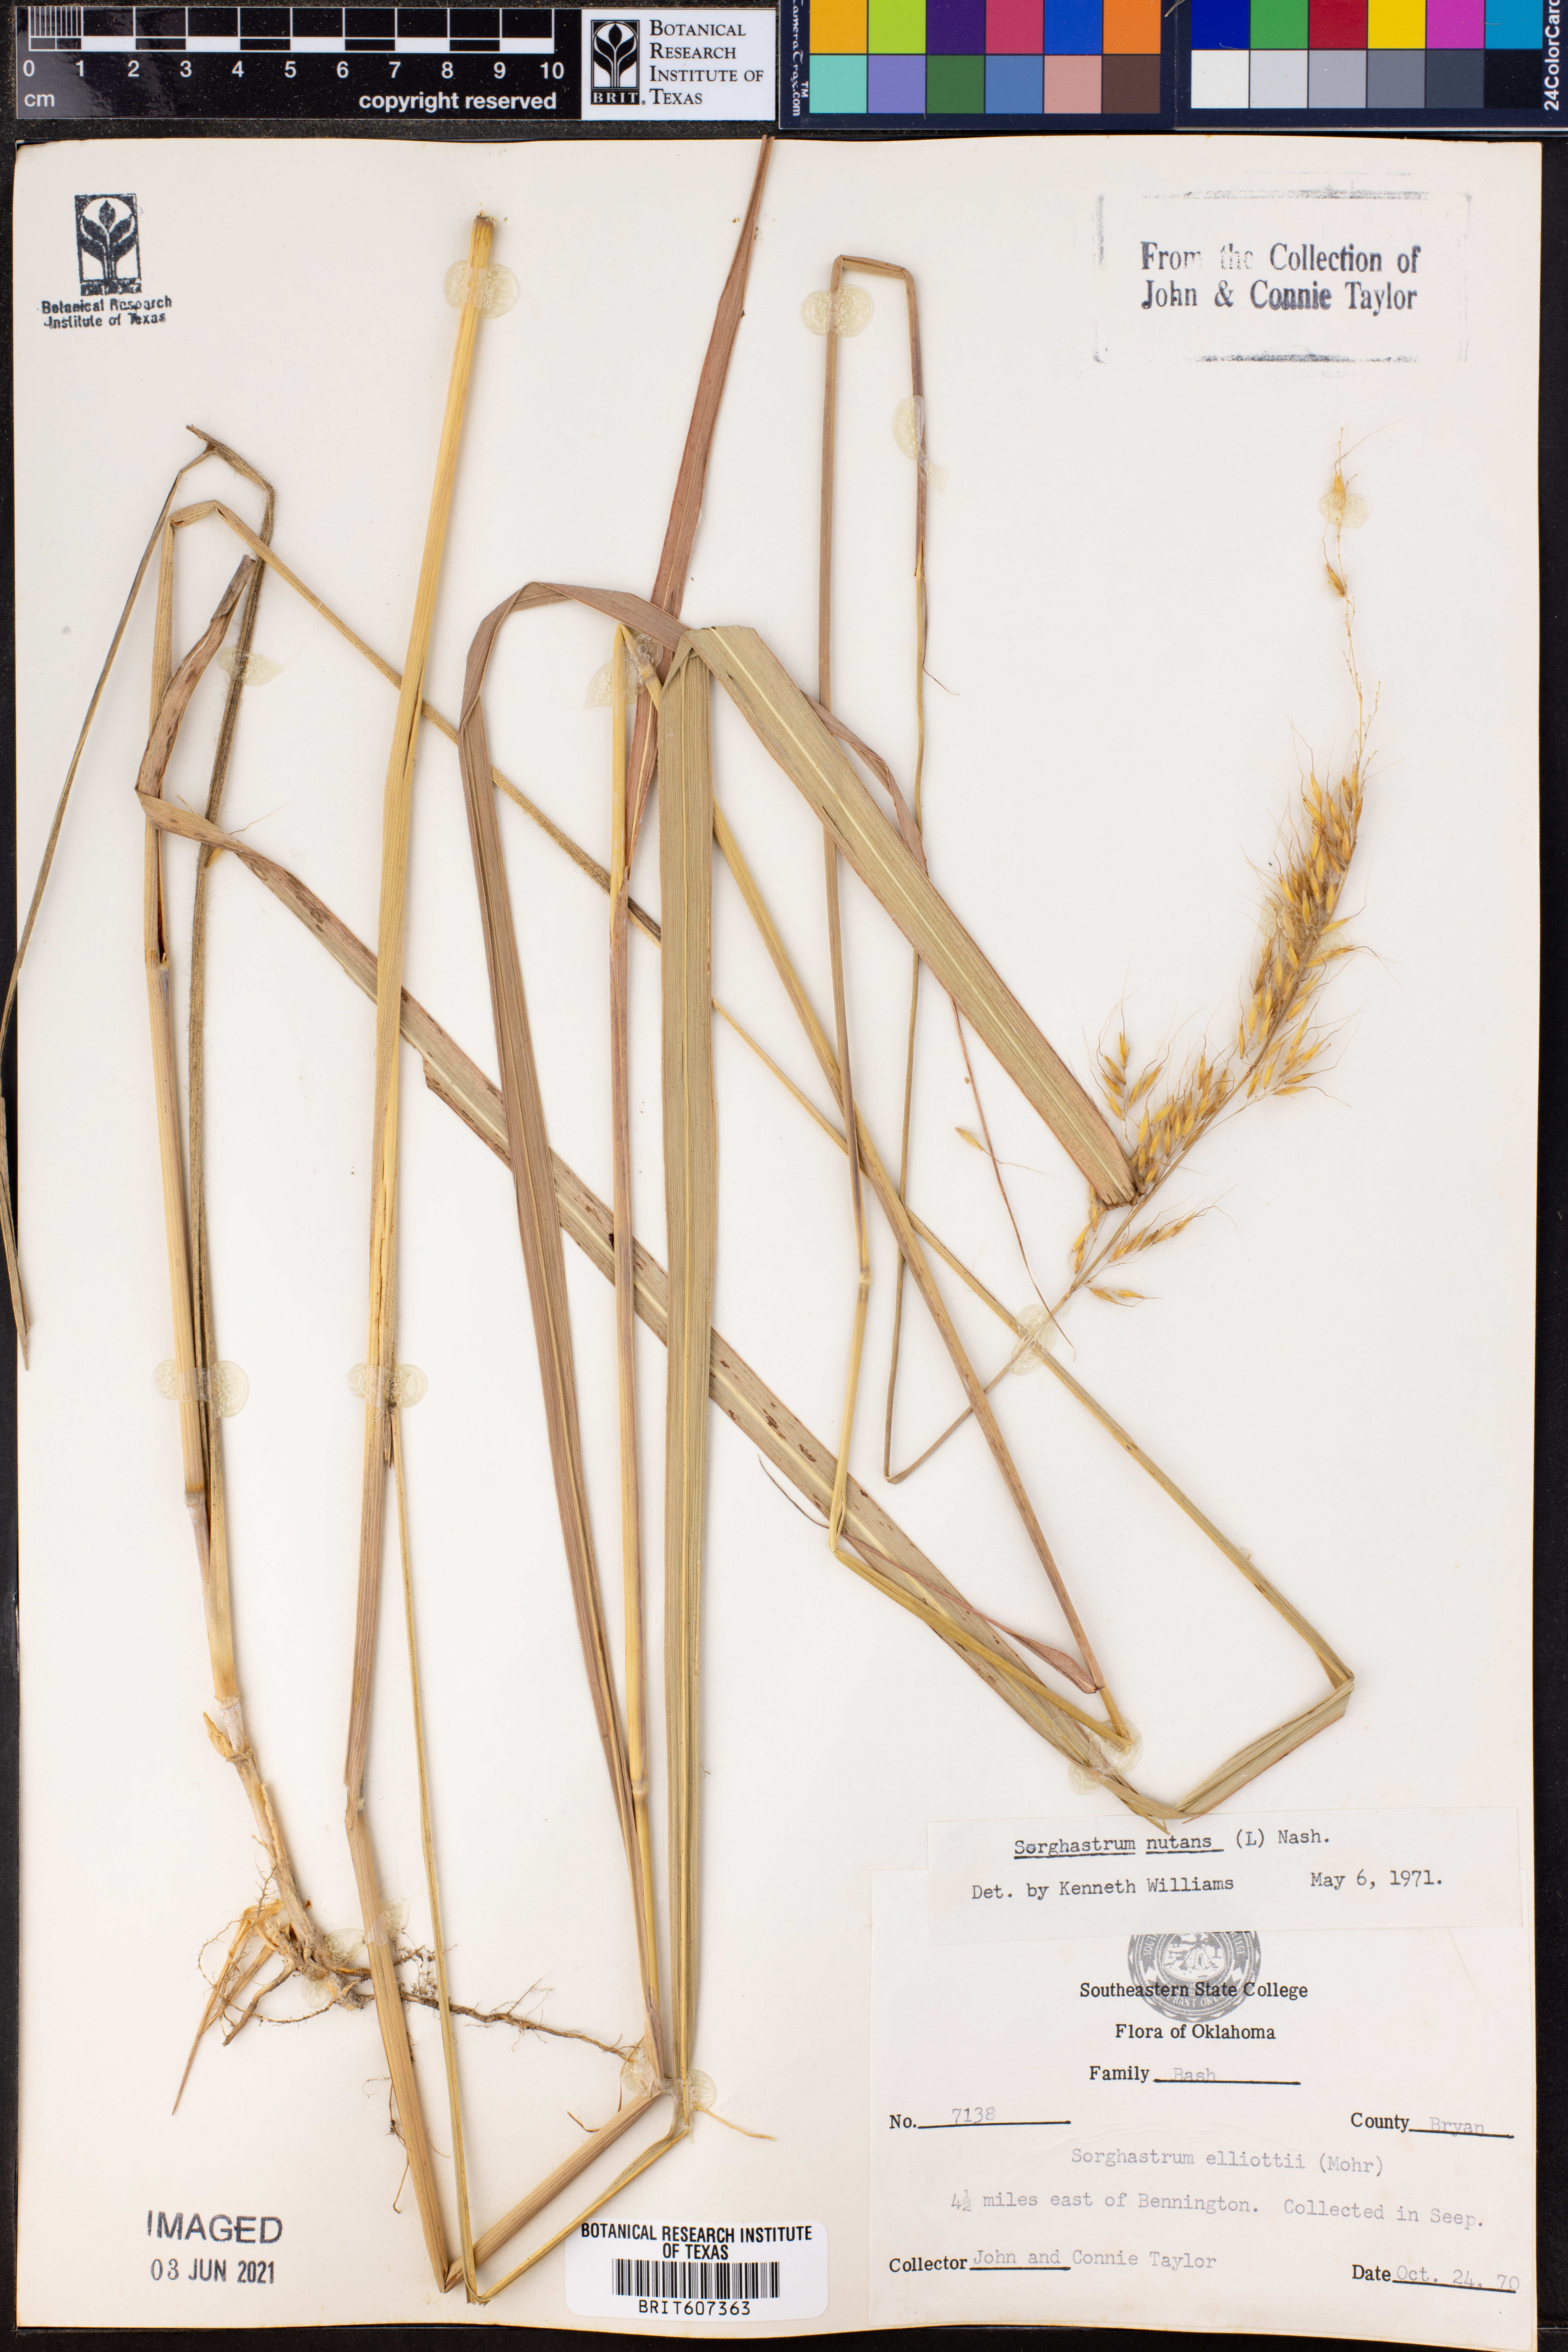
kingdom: Plantae
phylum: Tracheophyta
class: Liliopsida
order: Poales
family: Poaceae
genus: Sorghastrum
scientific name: Sorghastrum nutans
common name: Indian grass
